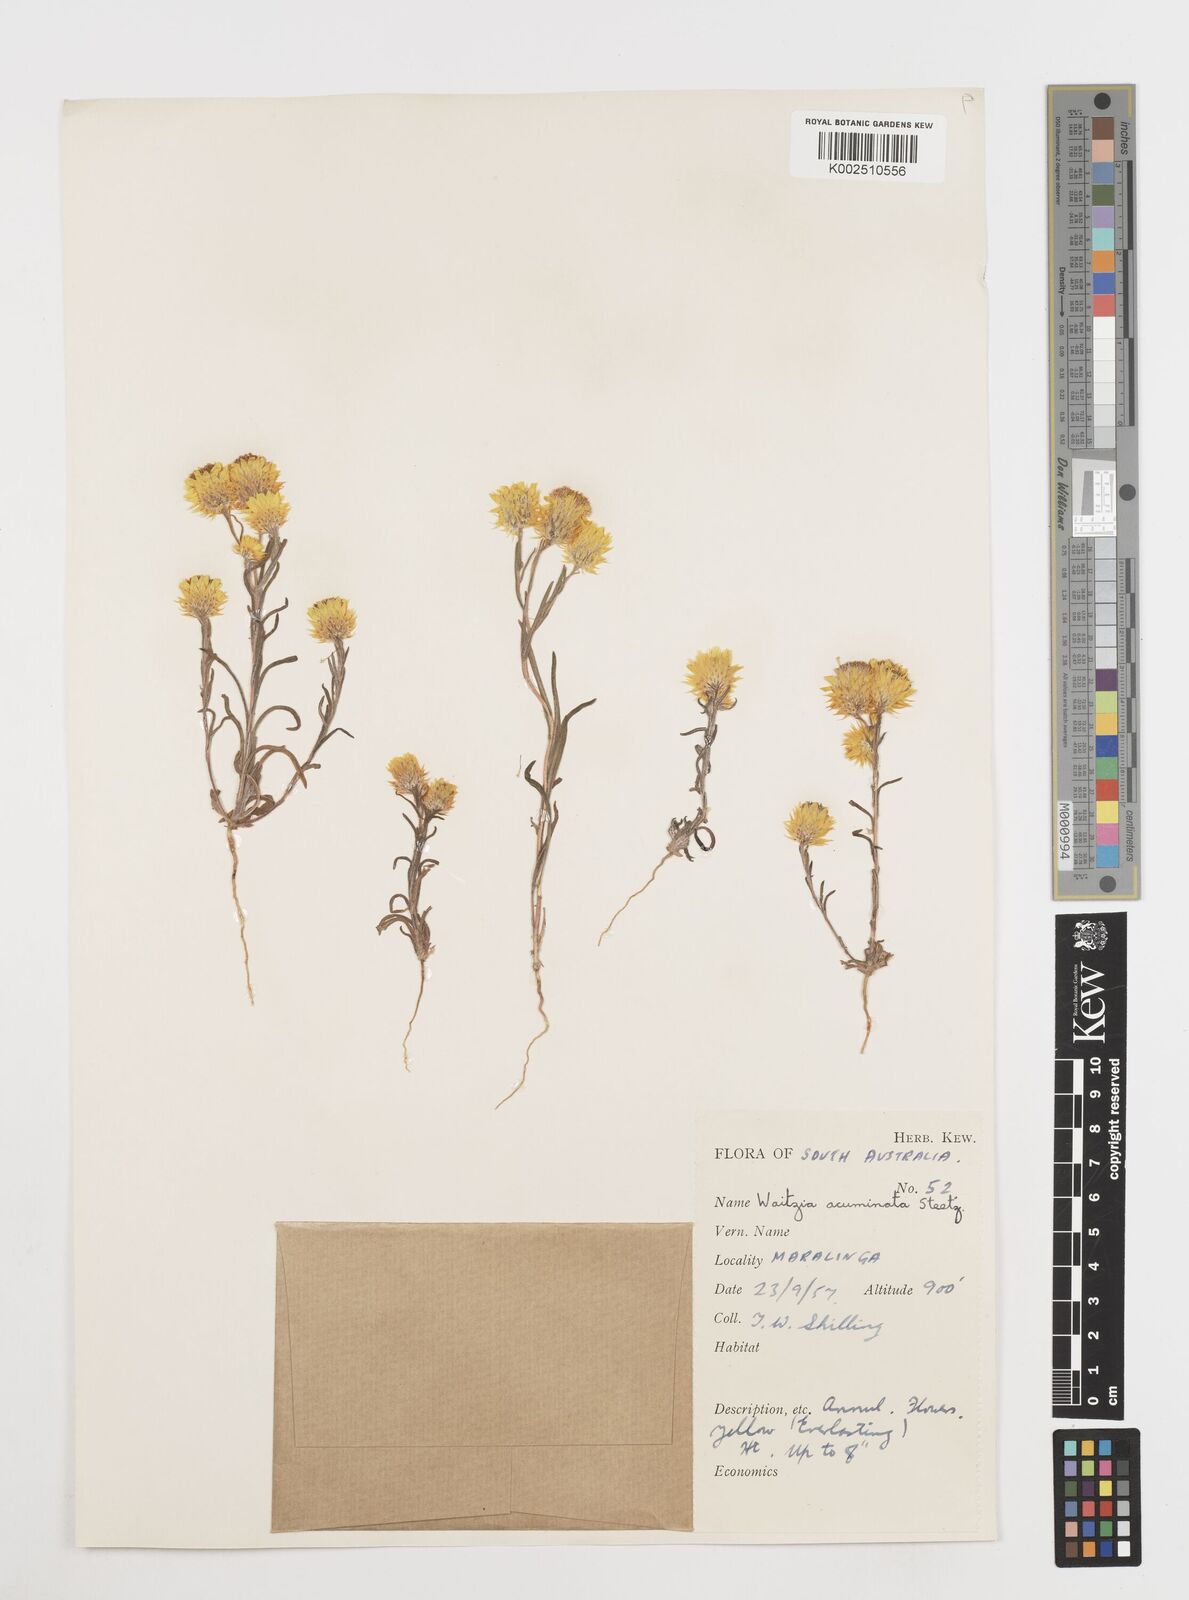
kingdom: Plantae
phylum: Tracheophyta
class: Magnoliopsida
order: Asterales
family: Asteraceae
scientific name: Asteraceae
